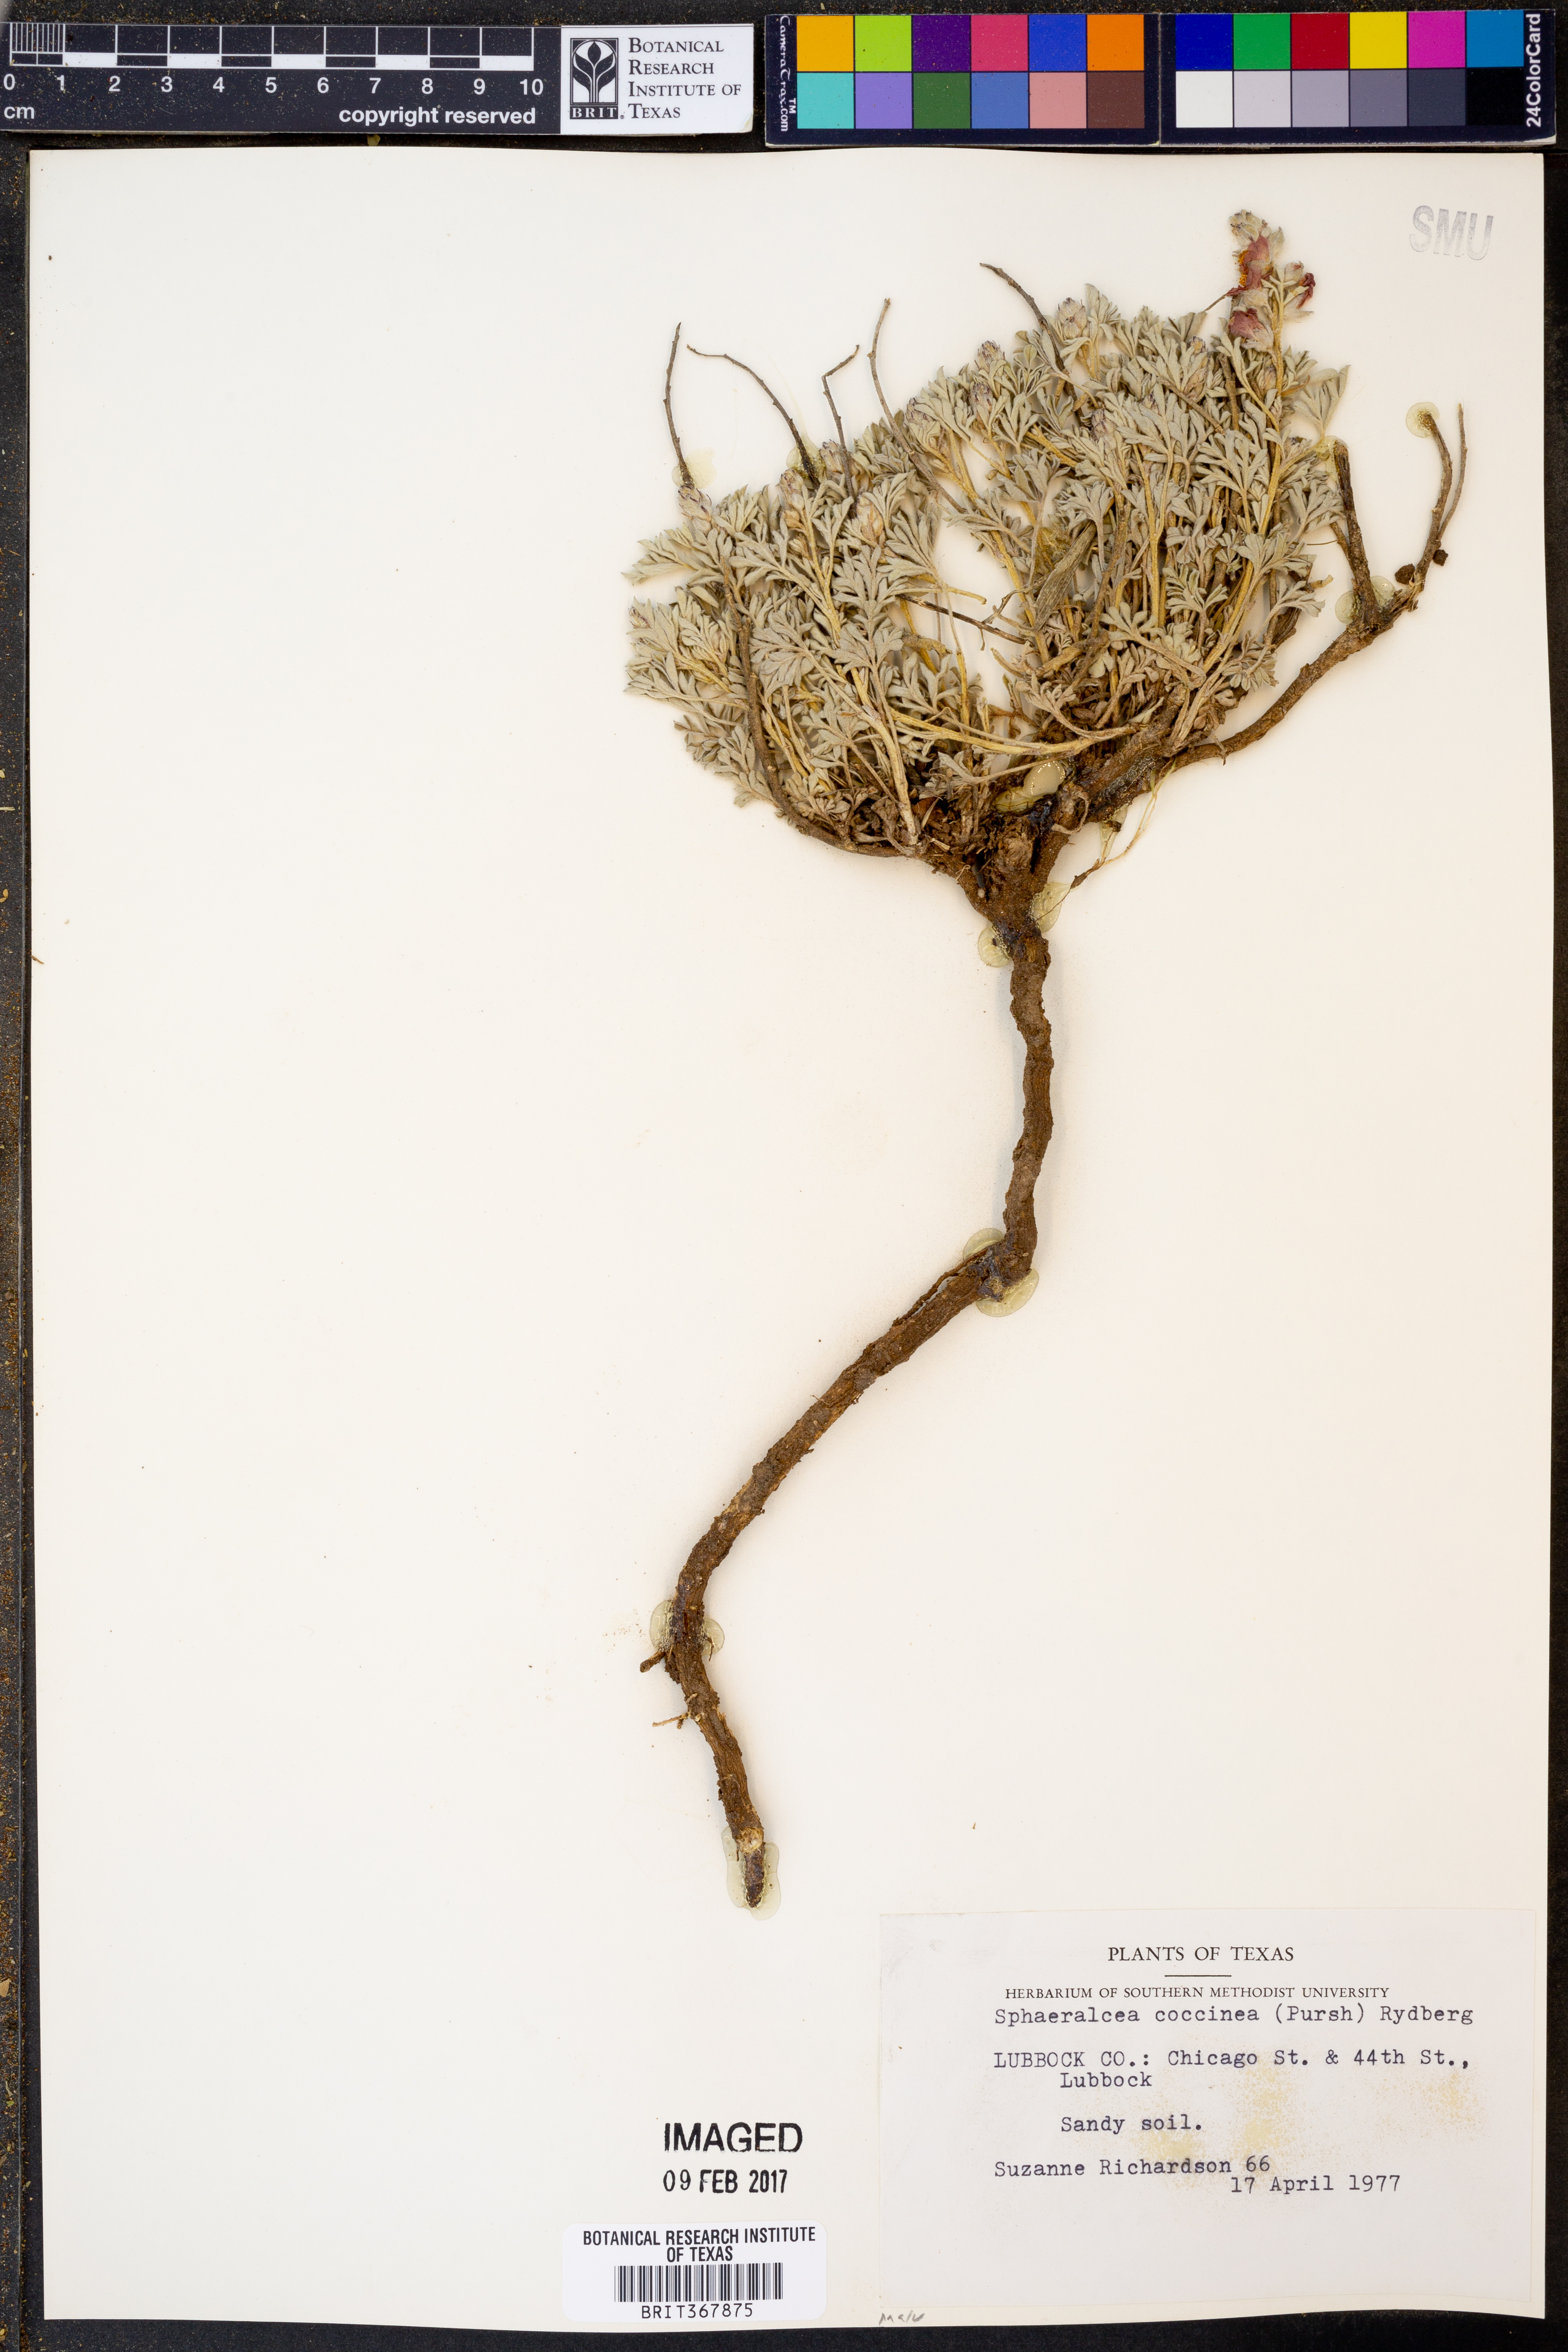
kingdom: Plantae
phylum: Tracheophyta
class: Magnoliopsida
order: Malvales
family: Malvaceae
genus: Sphaeralcea
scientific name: Sphaeralcea coccinea
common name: Moss-rose
